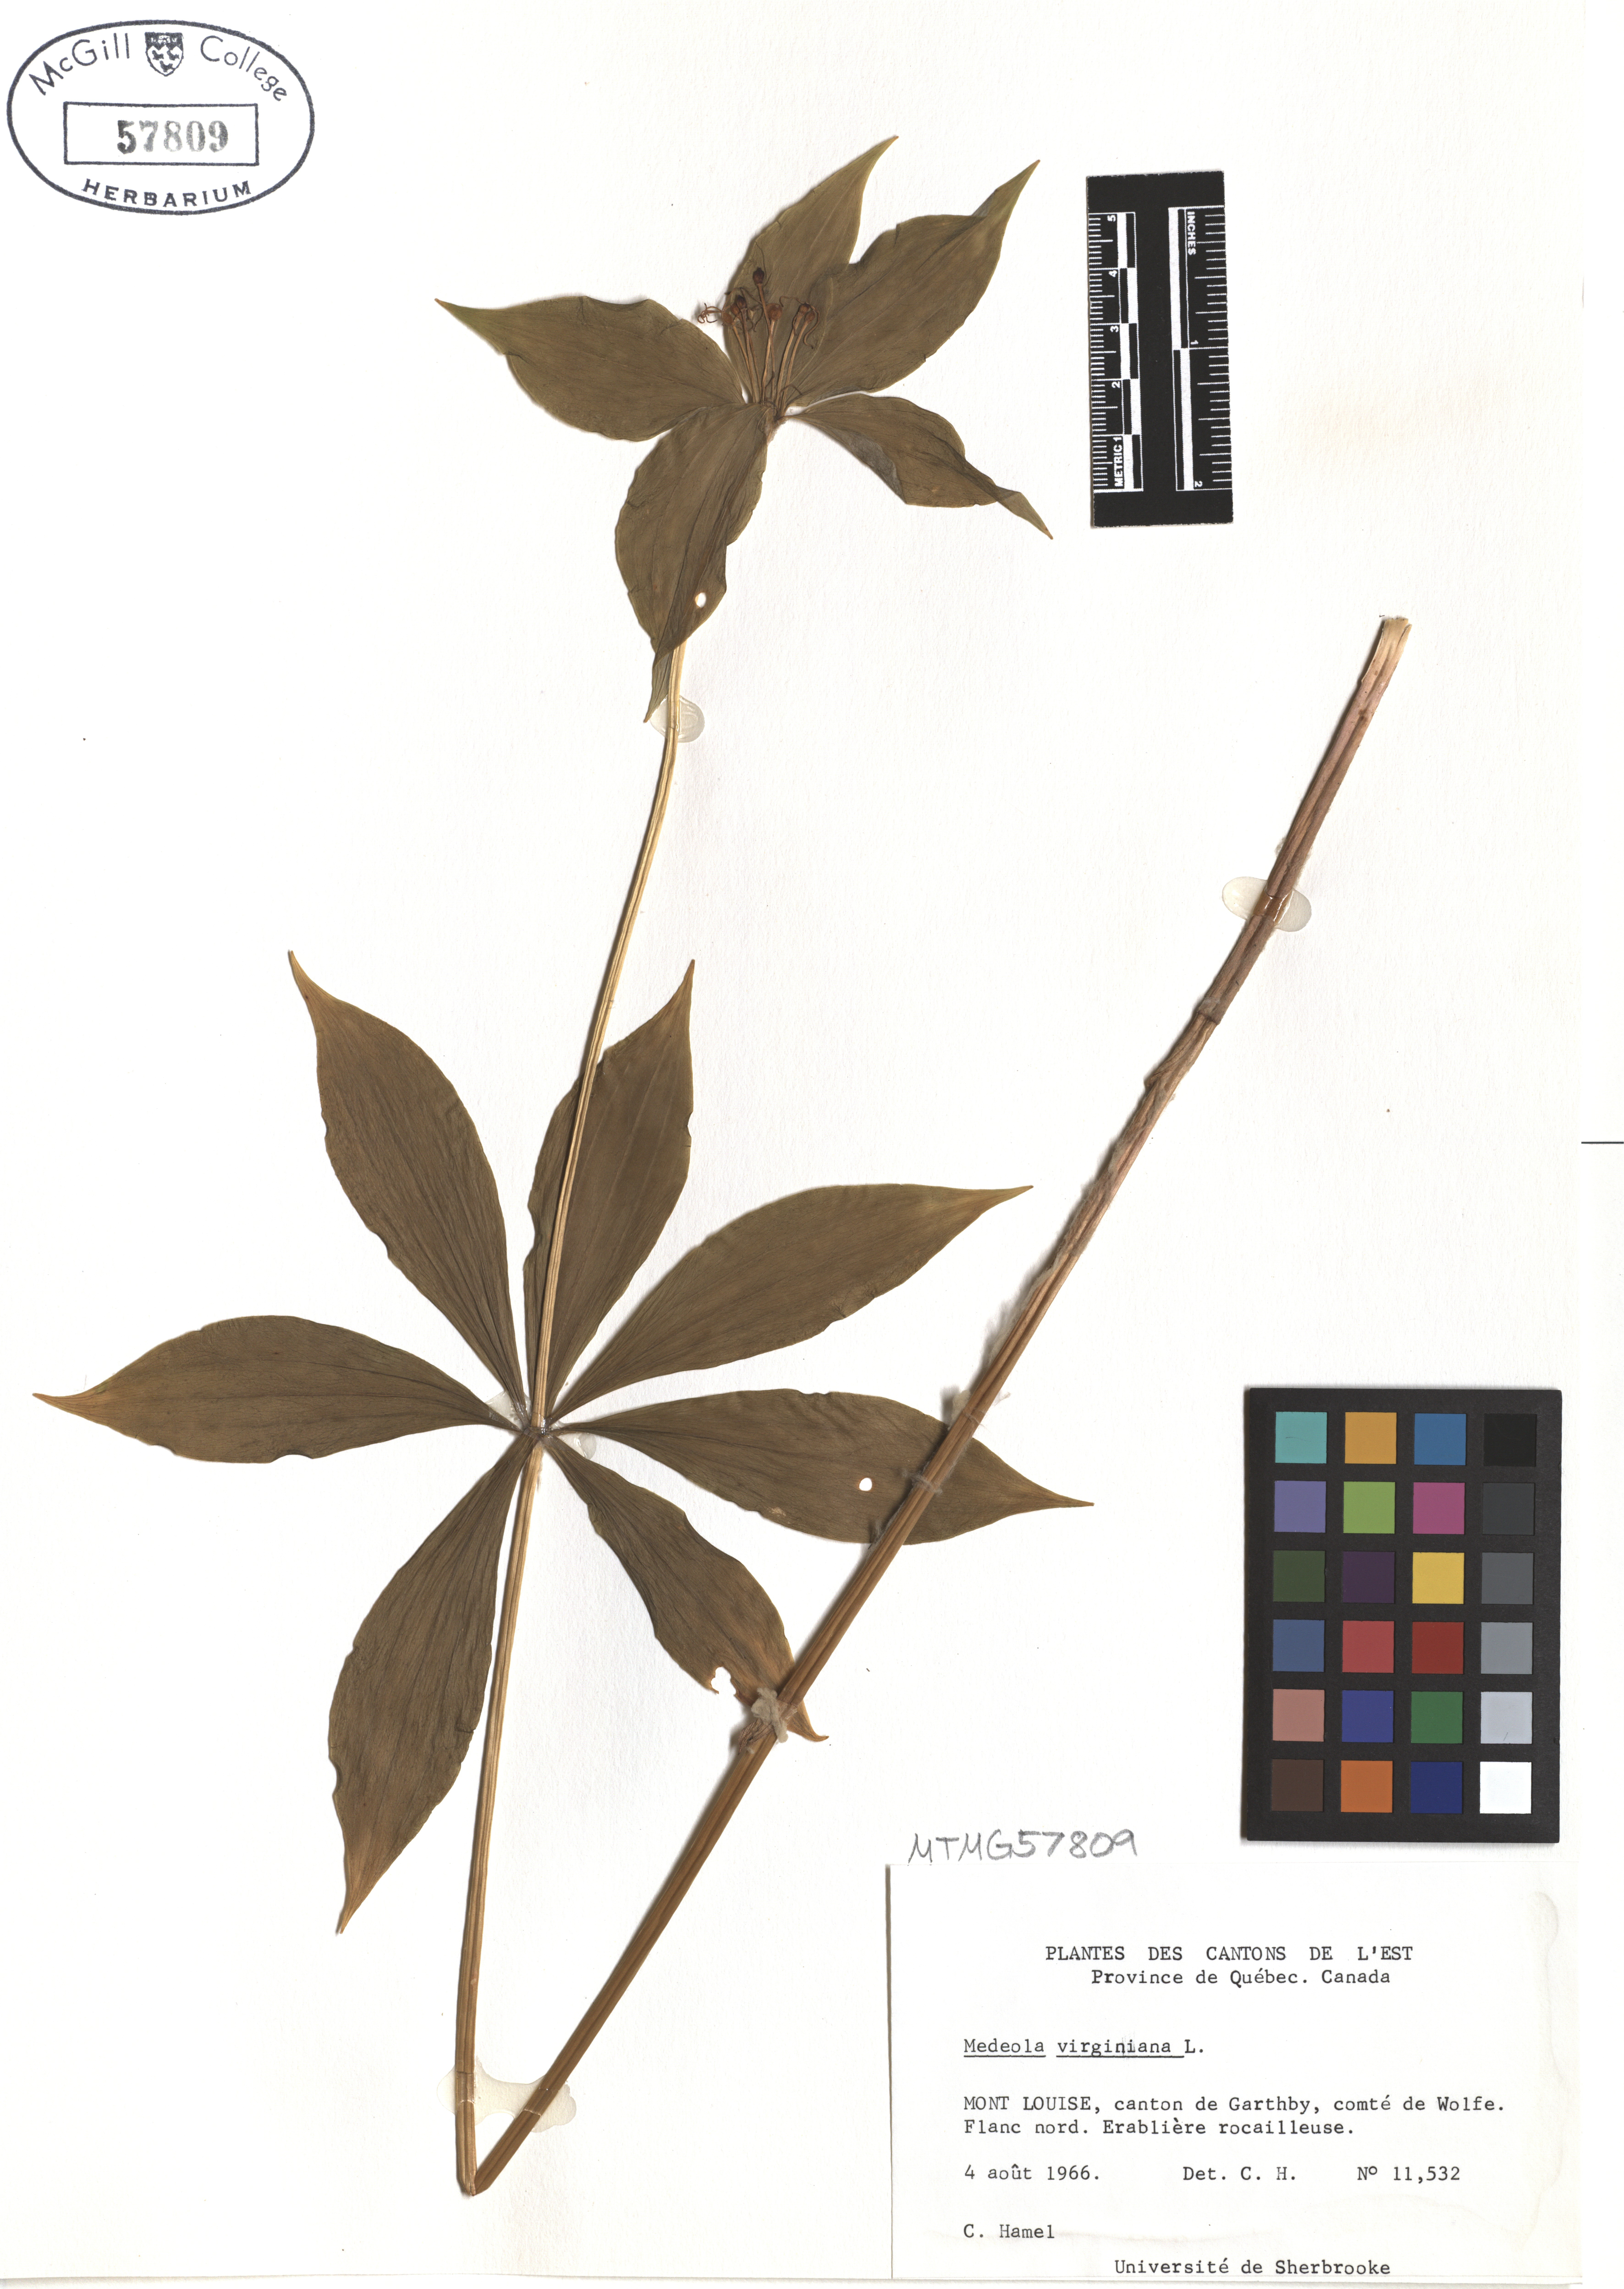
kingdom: Plantae
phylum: Tracheophyta
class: Liliopsida
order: Liliales
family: Liliaceae
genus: Medeola
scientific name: Medeola virginiana
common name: Indian cucumber-root
